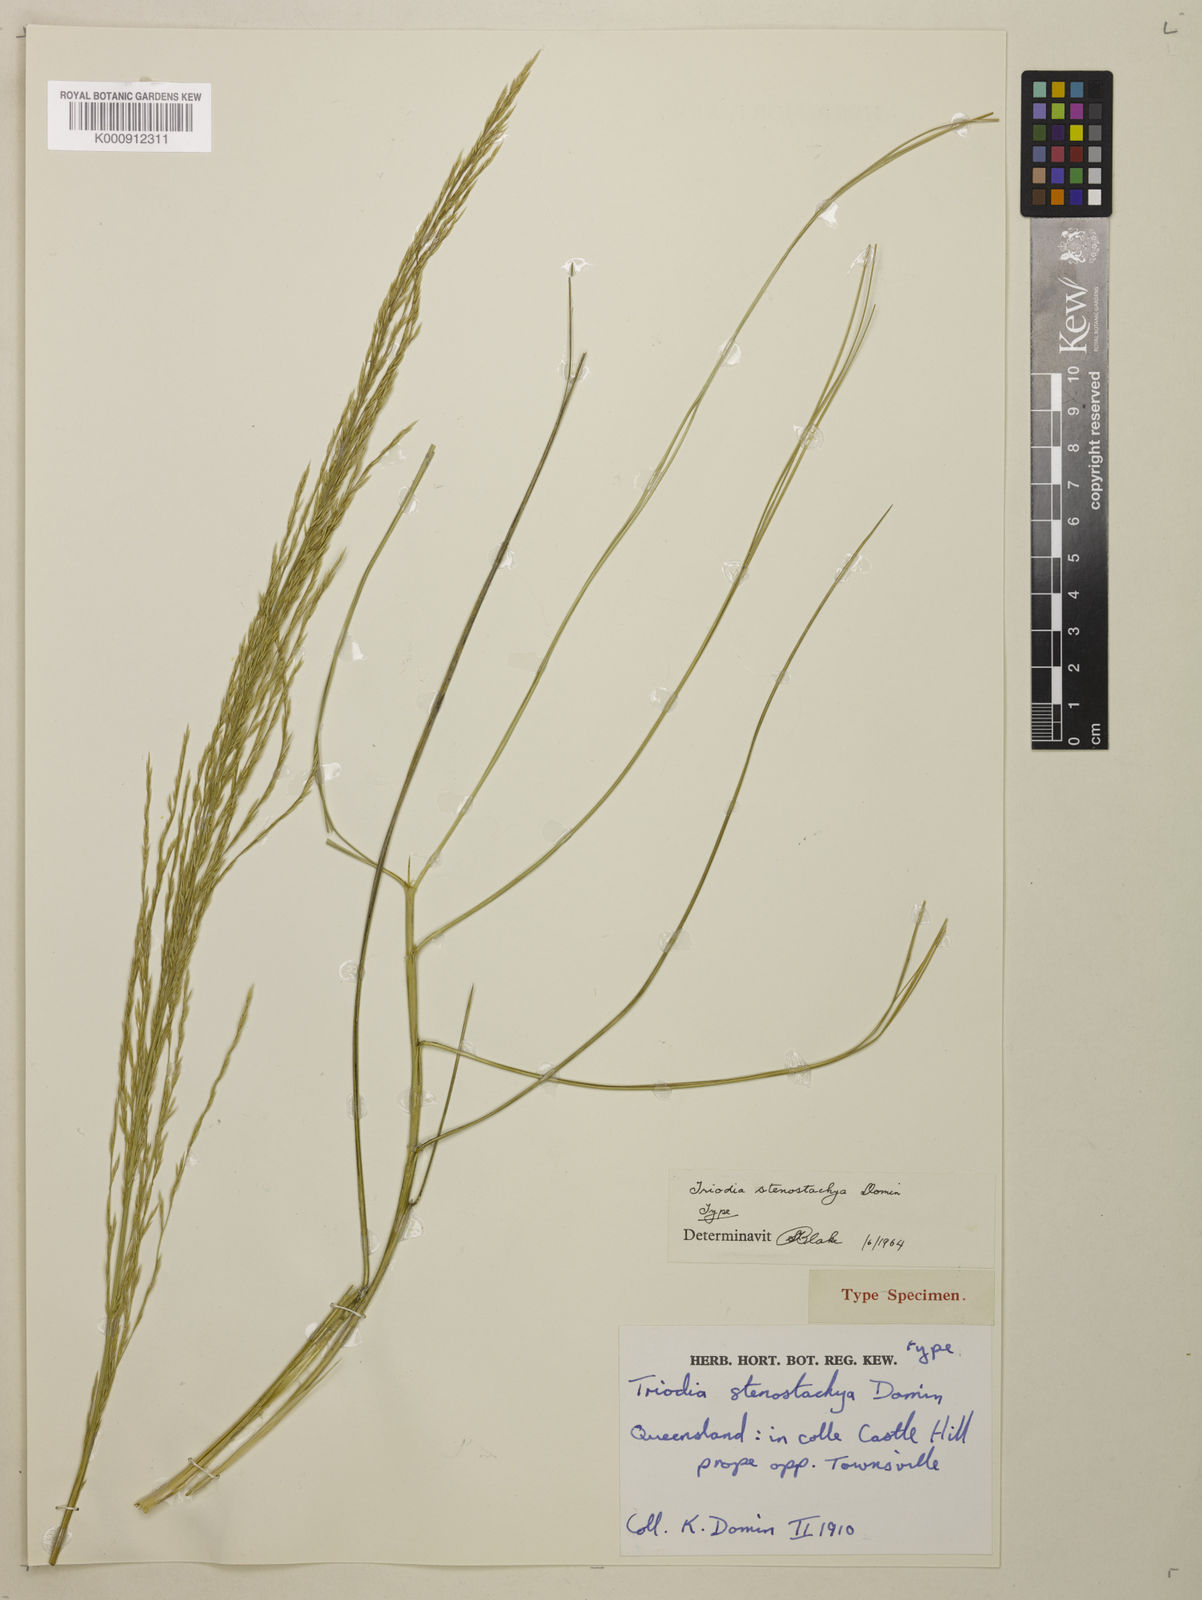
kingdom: Plantae
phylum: Tracheophyta
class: Liliopsida
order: Poales
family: Poaceae
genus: Triodia
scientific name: Triodia stenostachya
